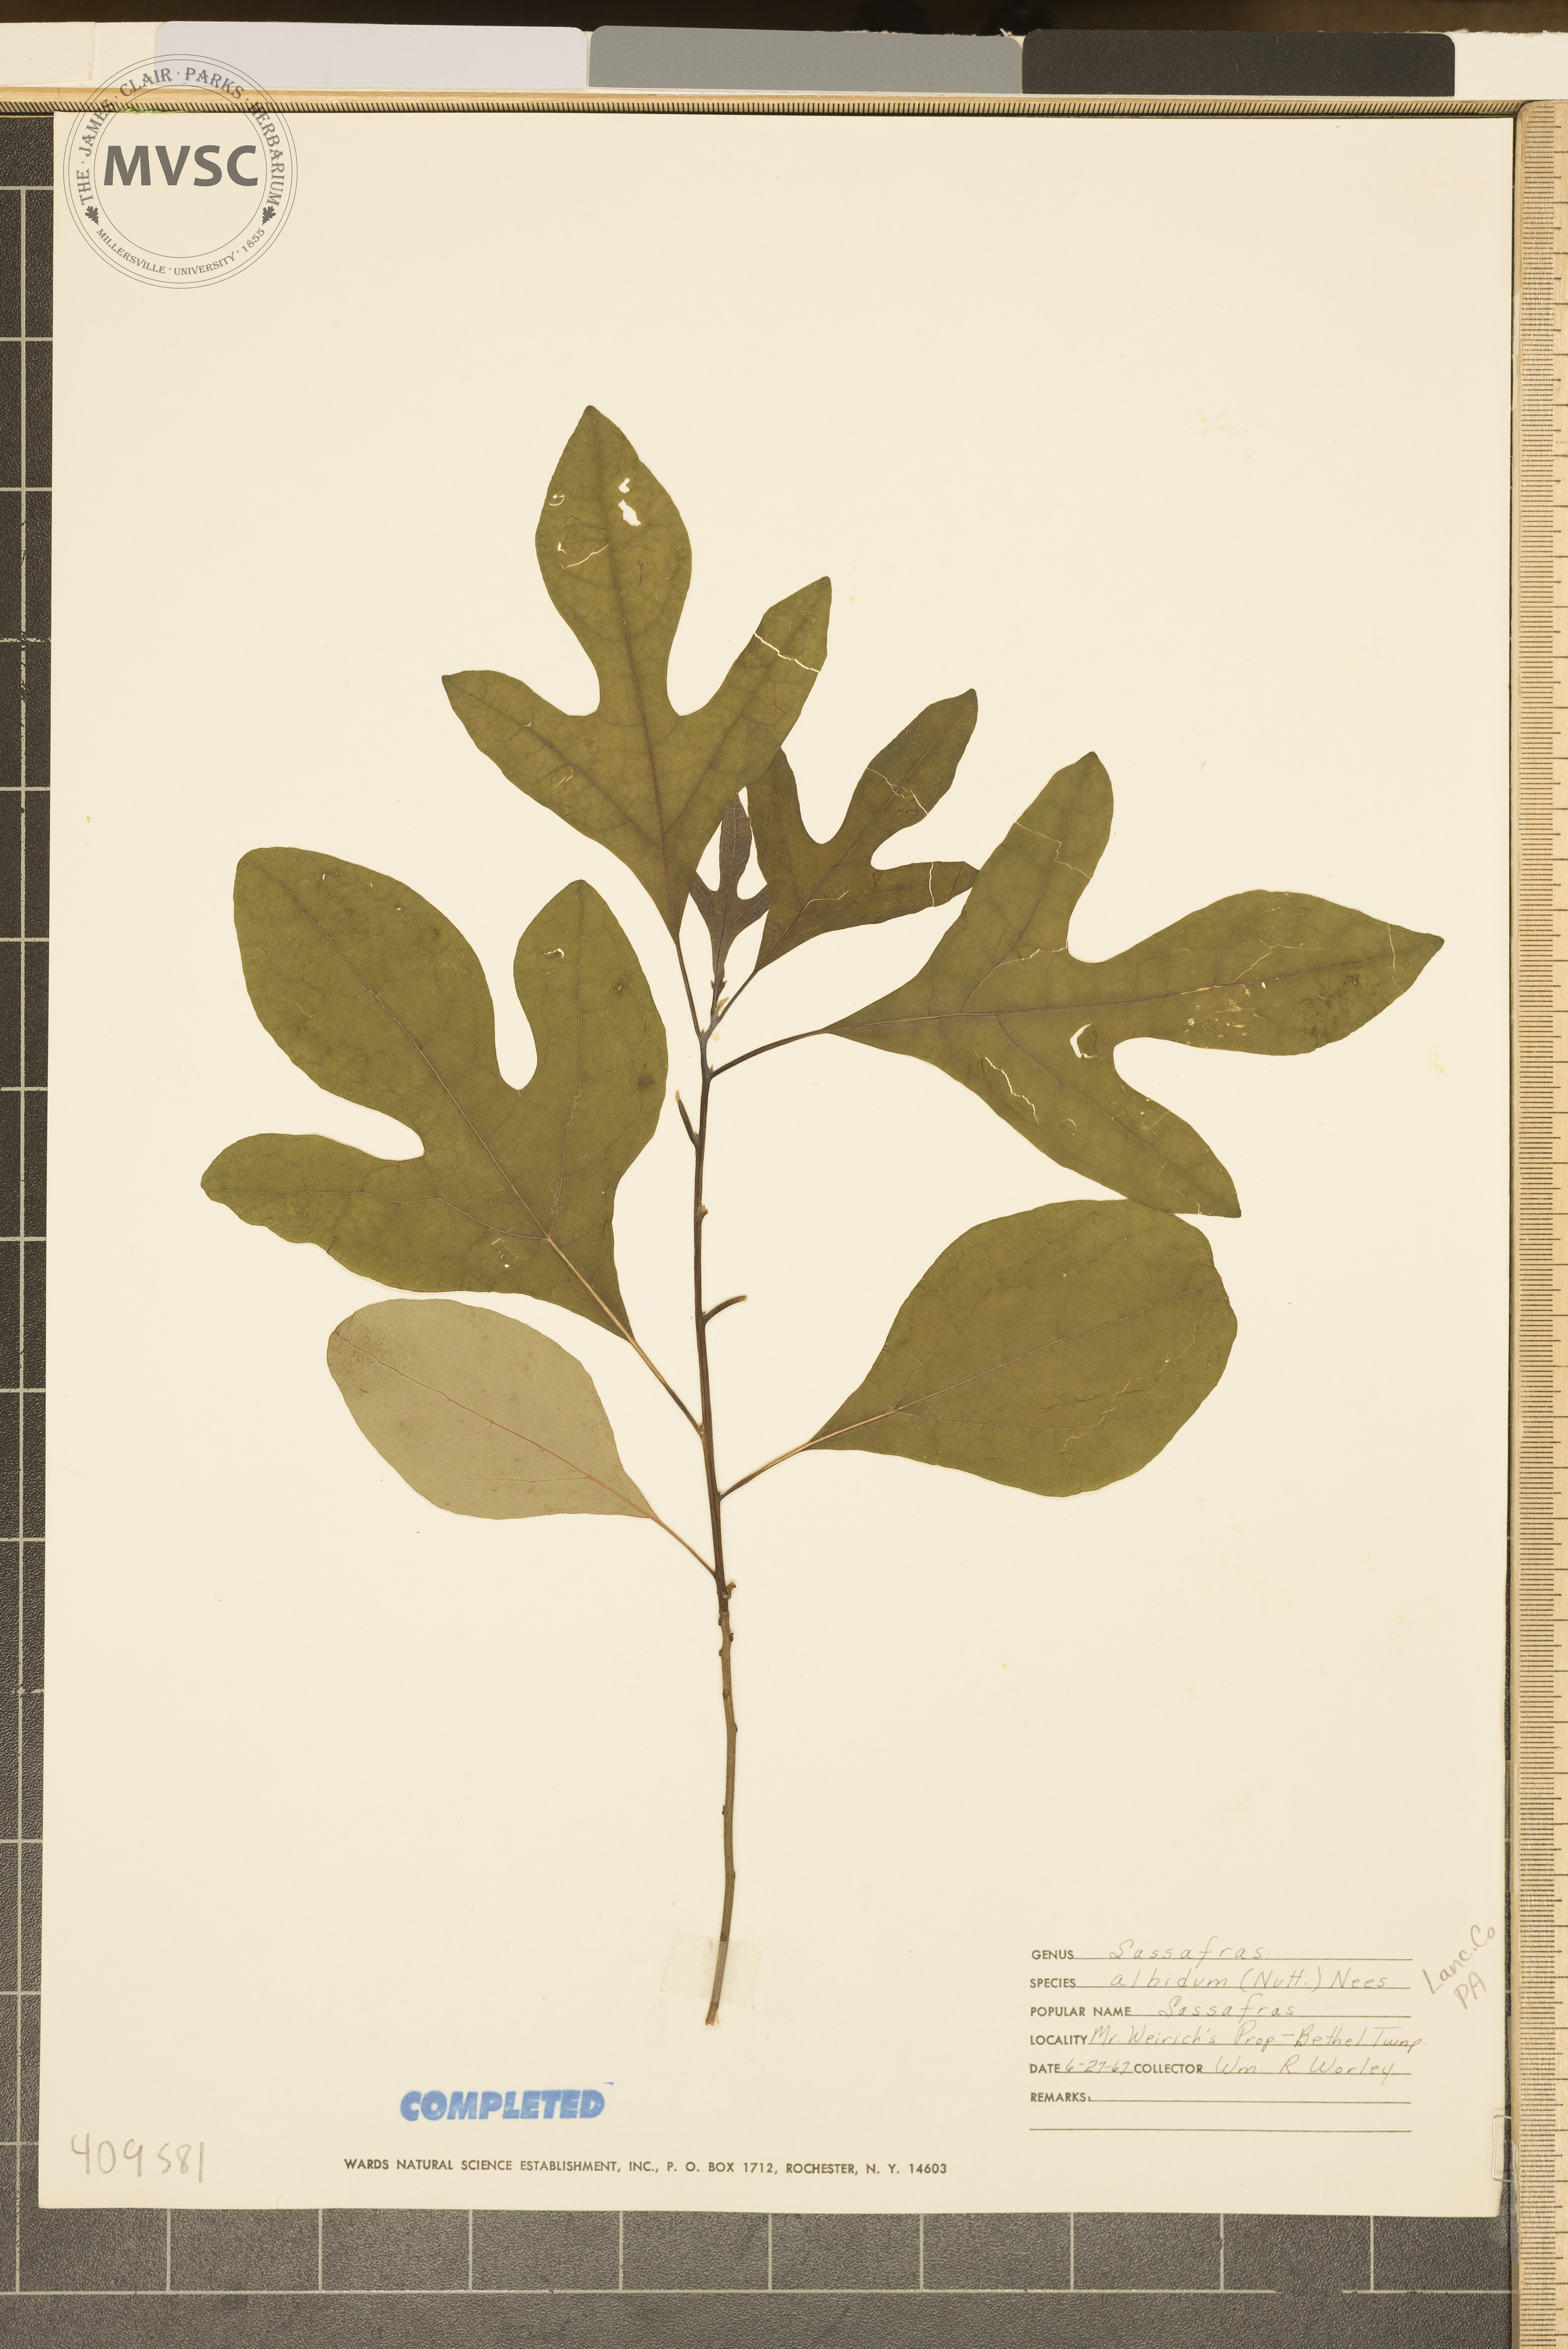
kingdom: Plantae
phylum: Tracheophyta
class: Magnoliopsida
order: Laurales
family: Lauraceae
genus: Sassafras
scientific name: Sassafras albidum
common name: Sassafras
